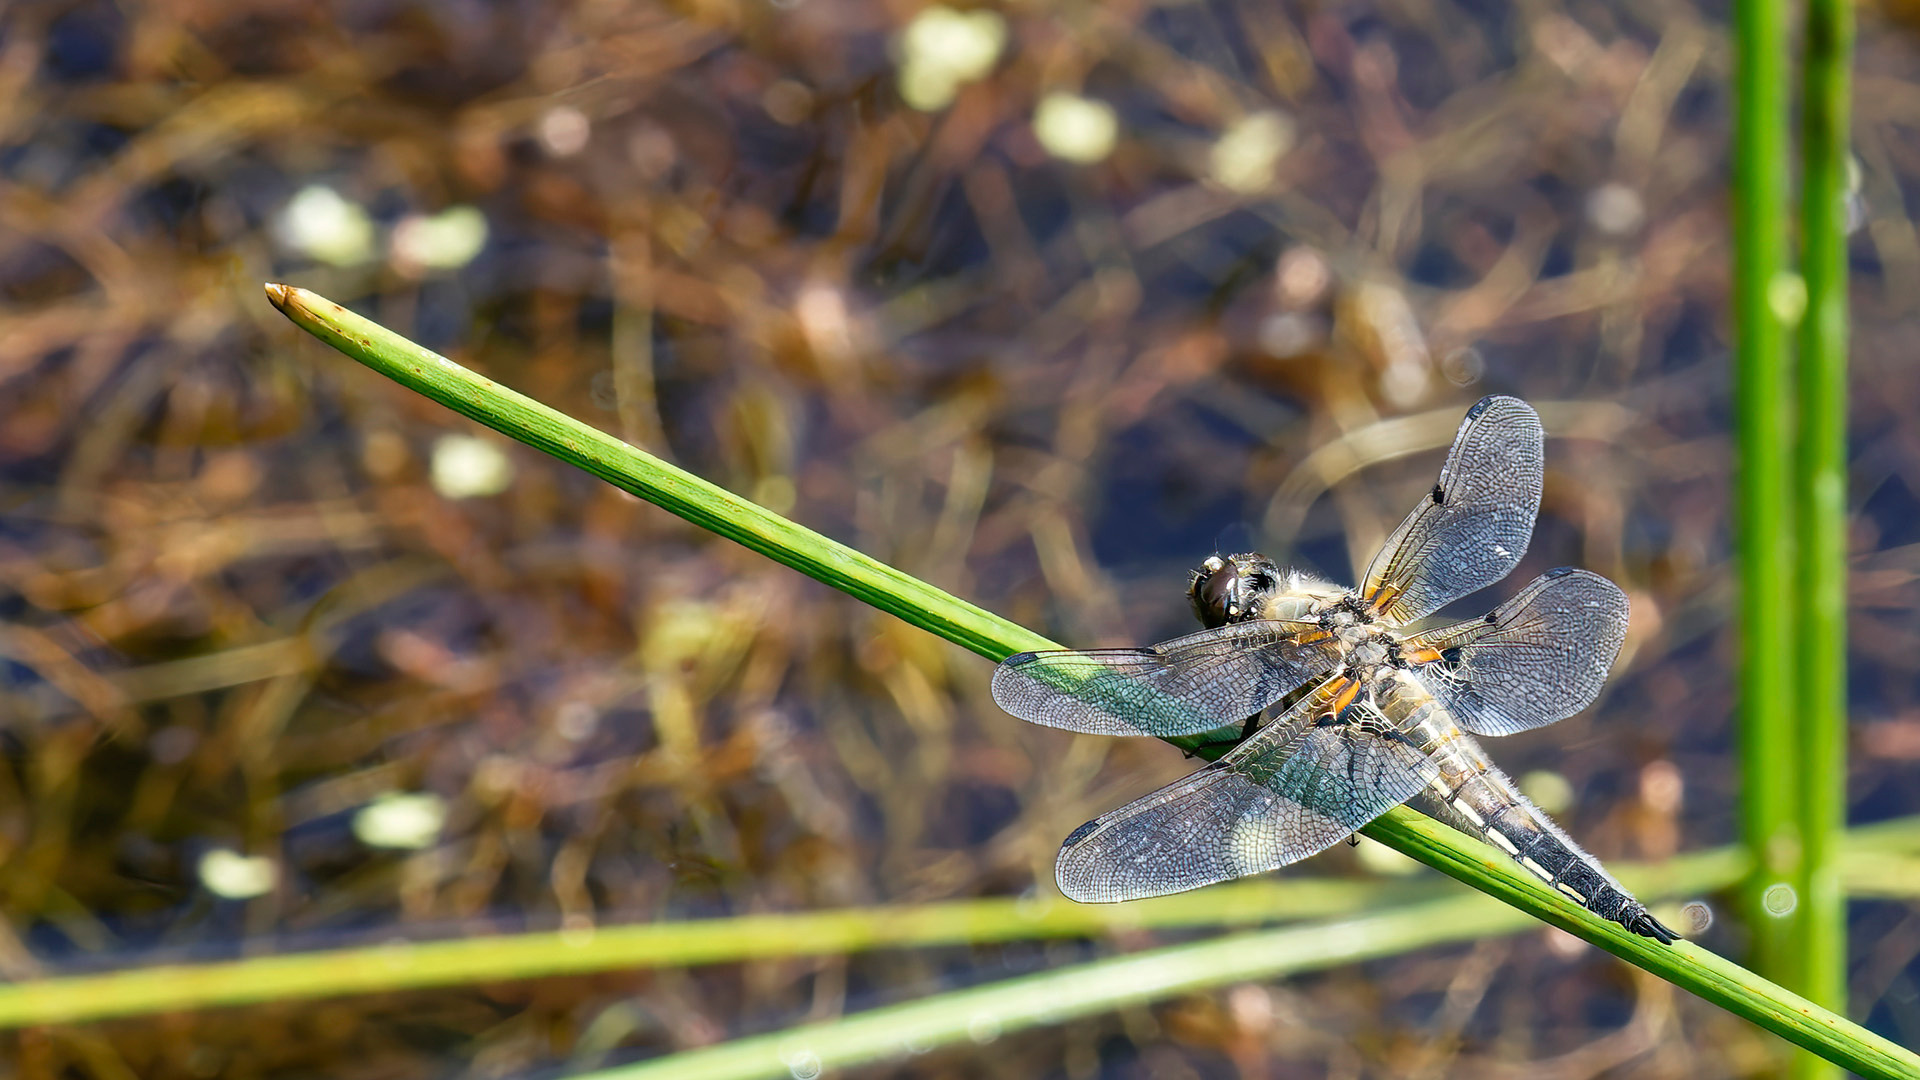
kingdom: Animalia
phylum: Arthropoda
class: Insecta
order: Odonata
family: Libellulidae
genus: Libellula
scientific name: Libellula quadrimaculata
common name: Fireplettet libel
